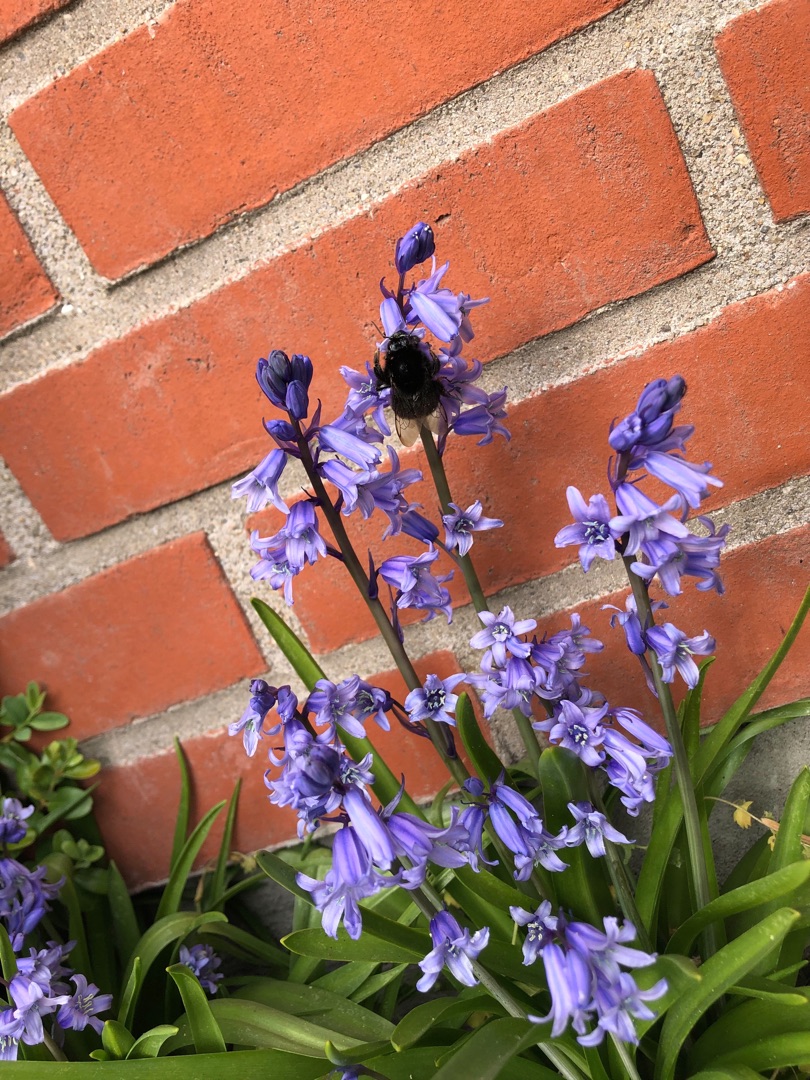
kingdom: Animalia
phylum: Arthropoda
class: Insecta
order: Hymenoptera
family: Apidae
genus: Bombus
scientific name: Bombus lapidarius
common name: Stenhumle
